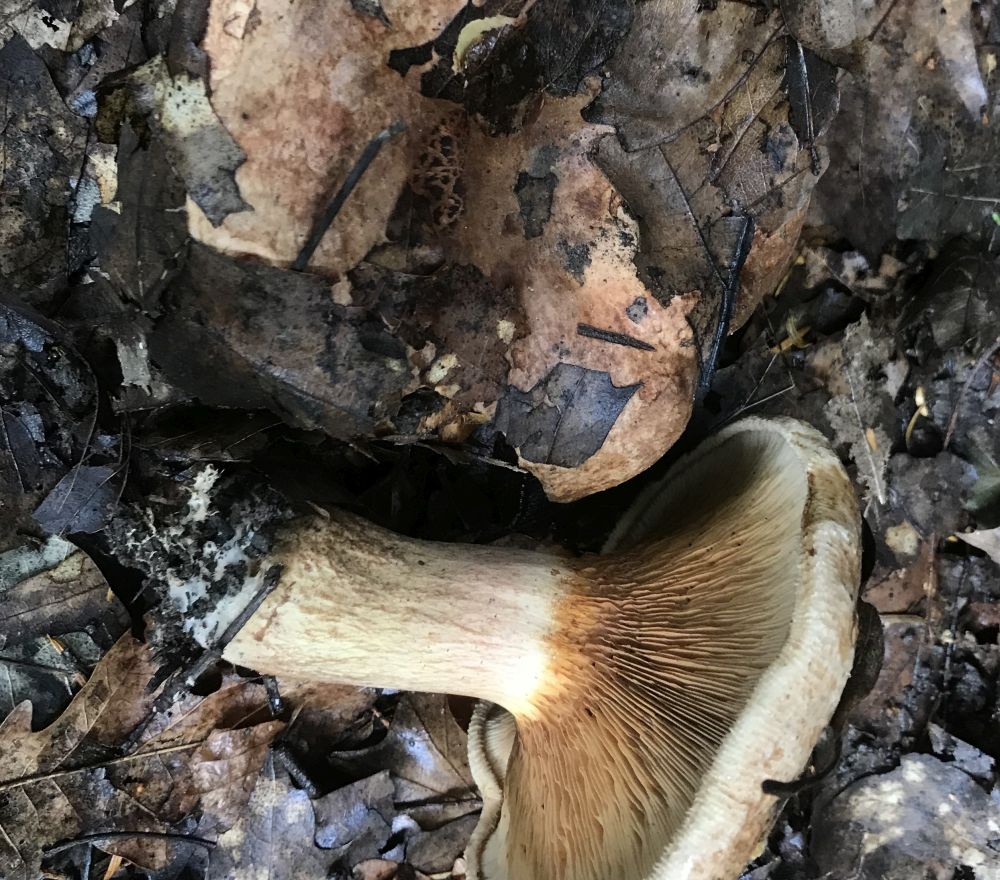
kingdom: Fungi
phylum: Basidiomycota
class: Agaricomycetes
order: Boletales
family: Paxillaceae
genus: Paxillus
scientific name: Paxillus
